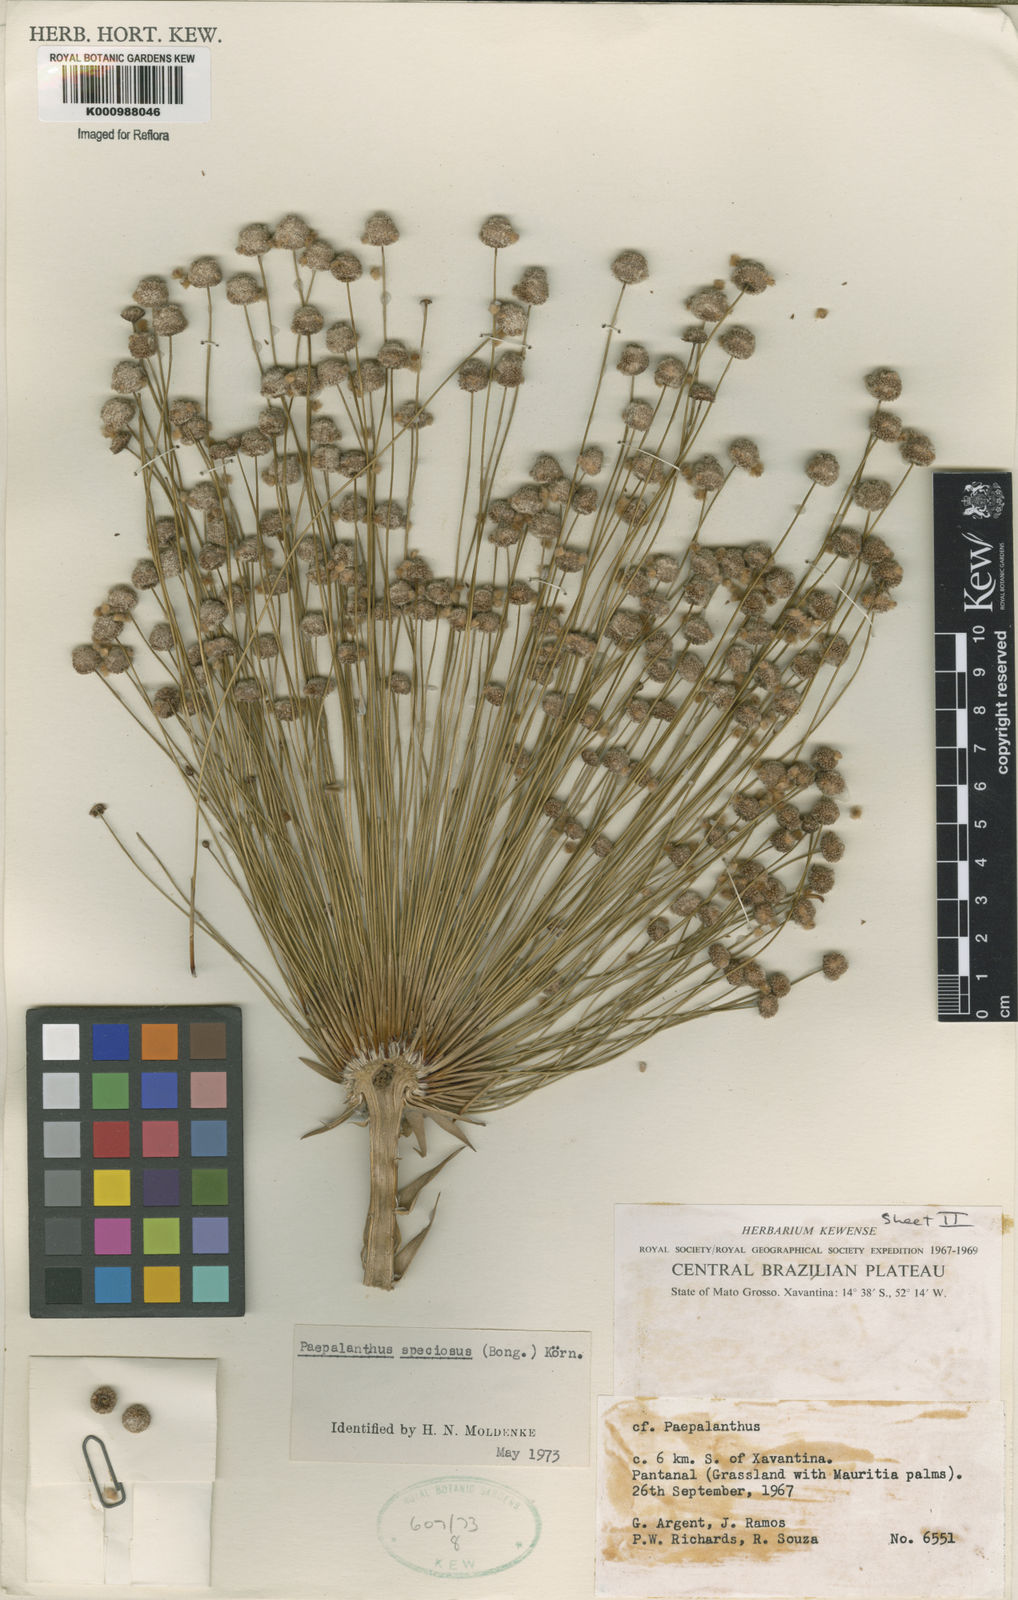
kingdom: Plantae
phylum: Tracheophyta
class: Liliopsida
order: Poales
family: Eriocaulaceae
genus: Paepalanthus
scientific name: Paepalanthus
